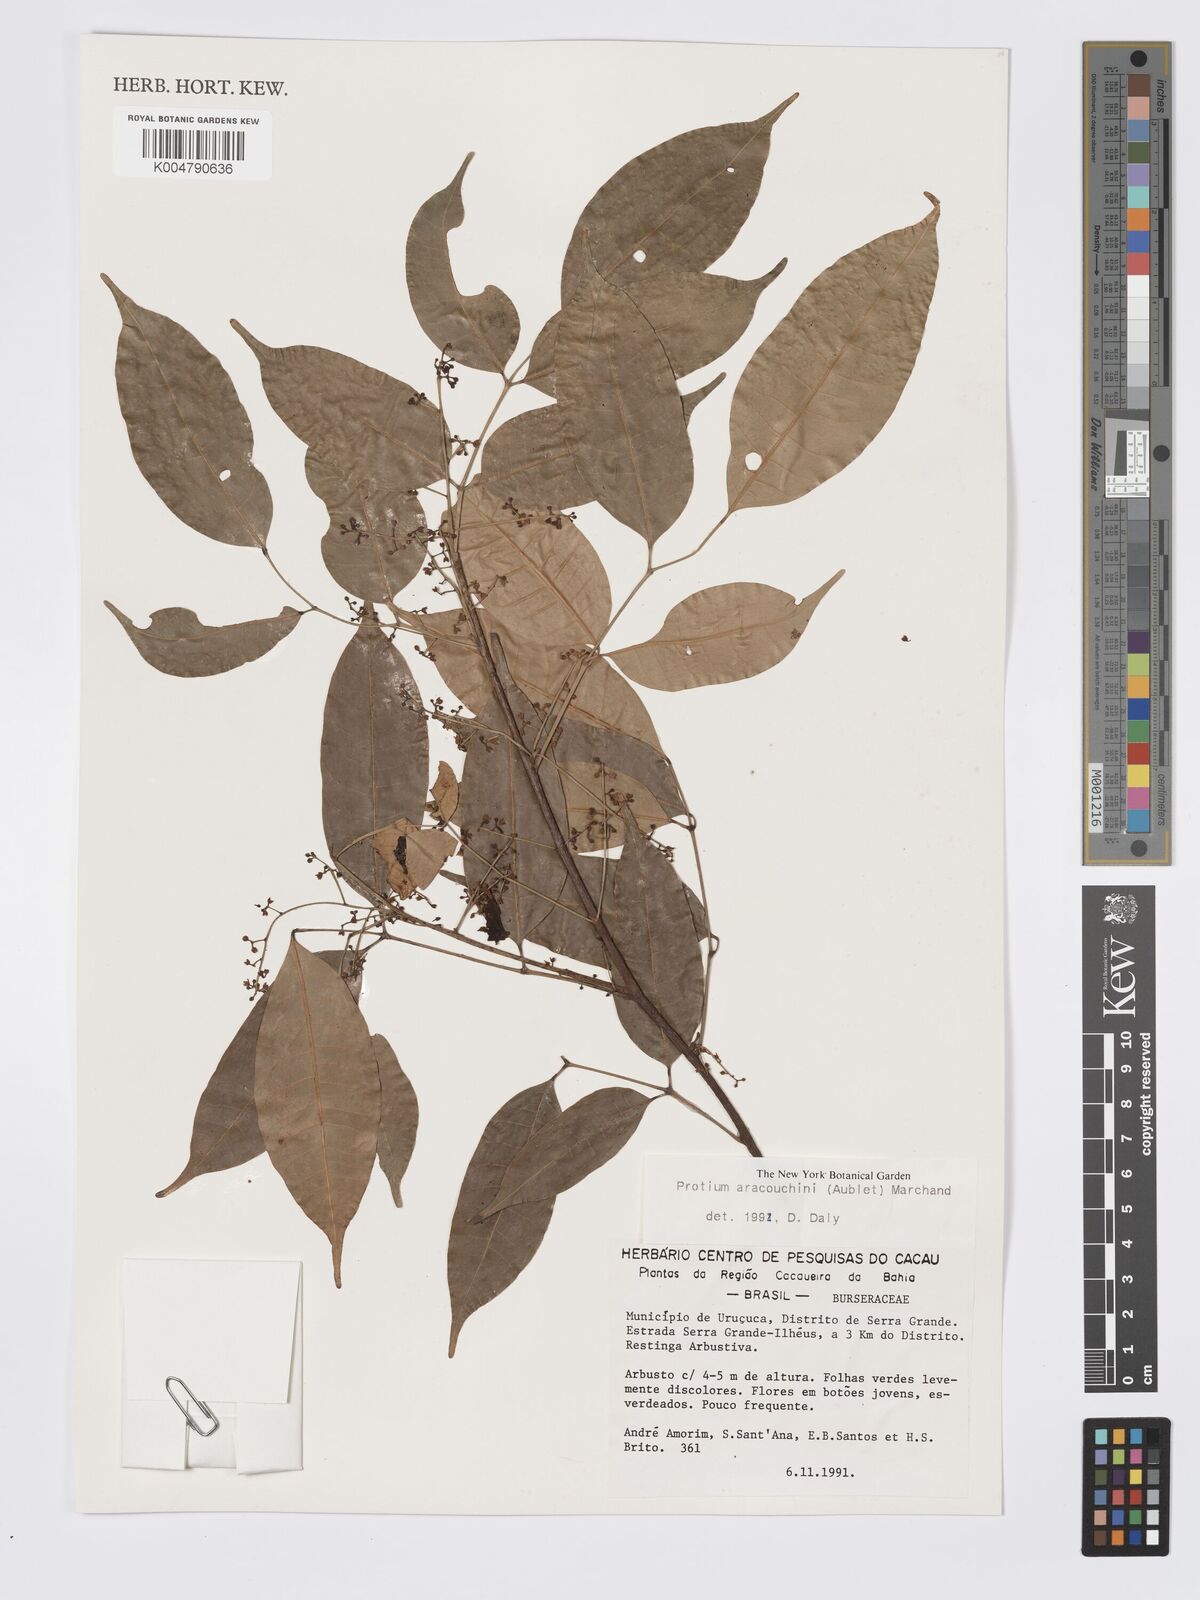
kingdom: Plantae
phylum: Tracheophyta
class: Magnoliopsida
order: Sapindales
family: Burseraceae
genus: Protium
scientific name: Protium aracouchini
